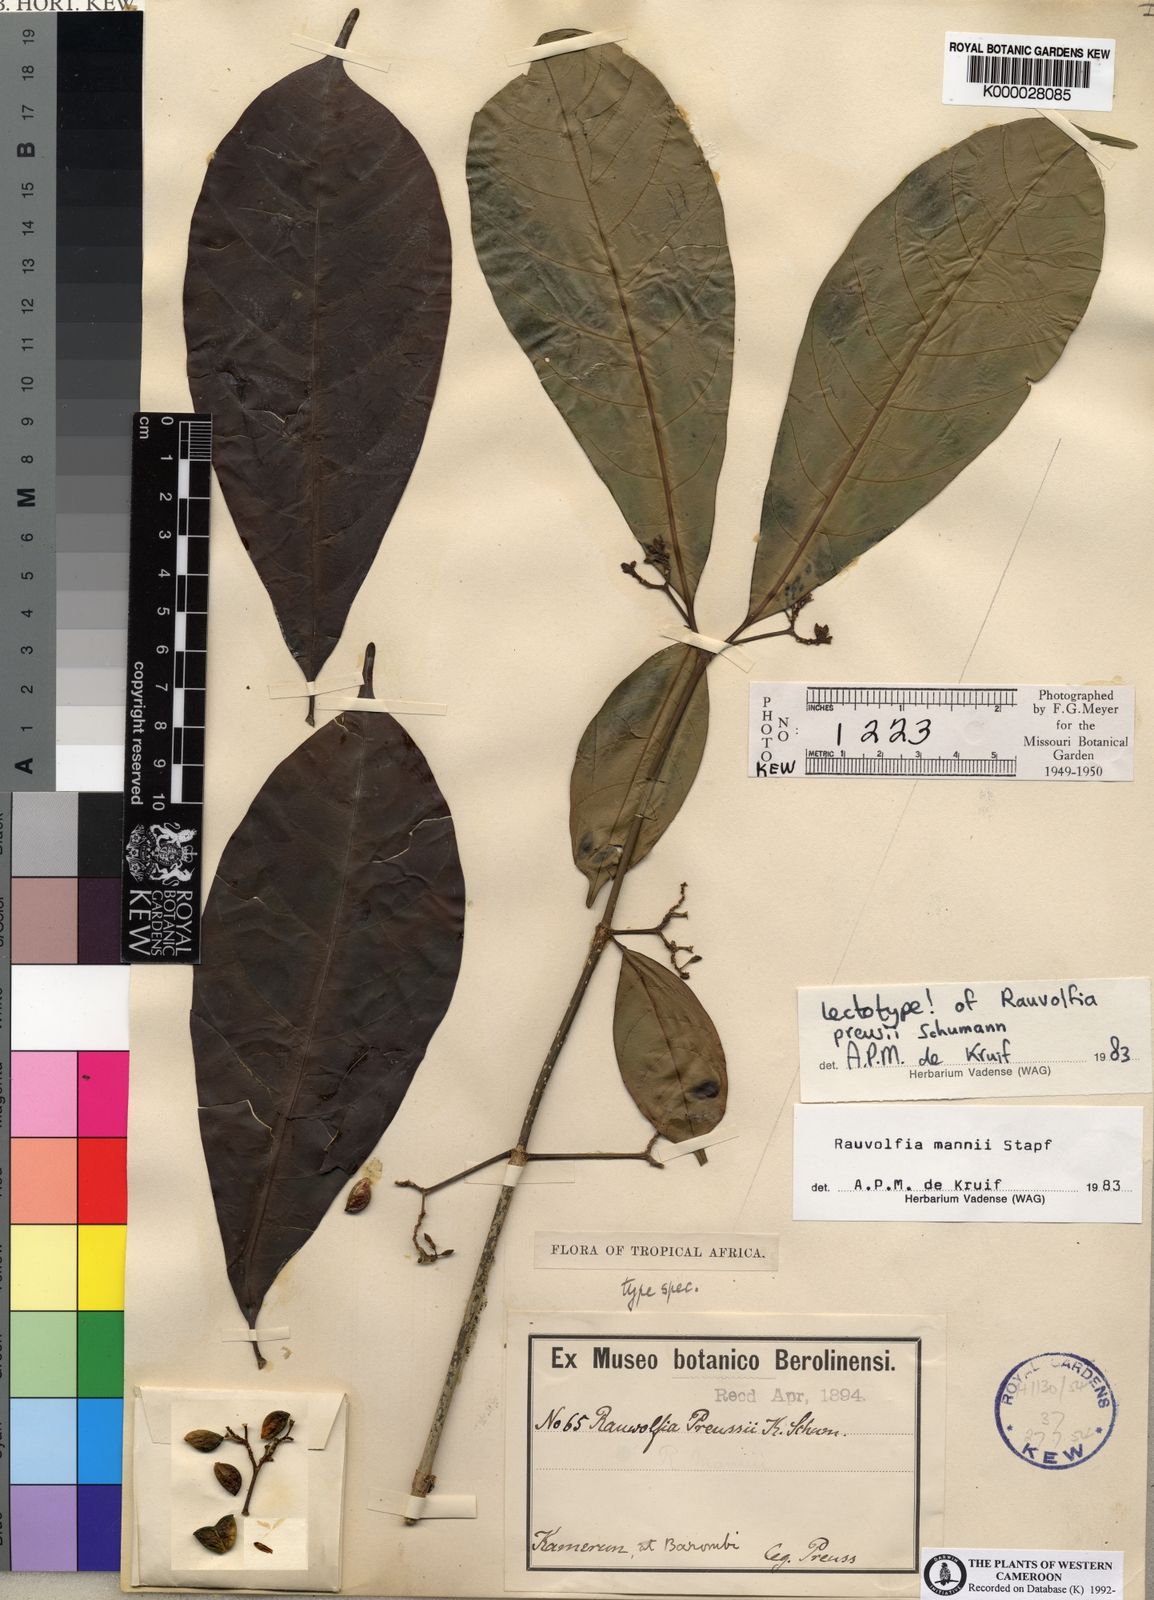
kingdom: Plantae
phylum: Tracheophyta
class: Magnoliopsida
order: Gentianales
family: Apocynaceae
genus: Rauvolfia
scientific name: Rauvolfia mannii
